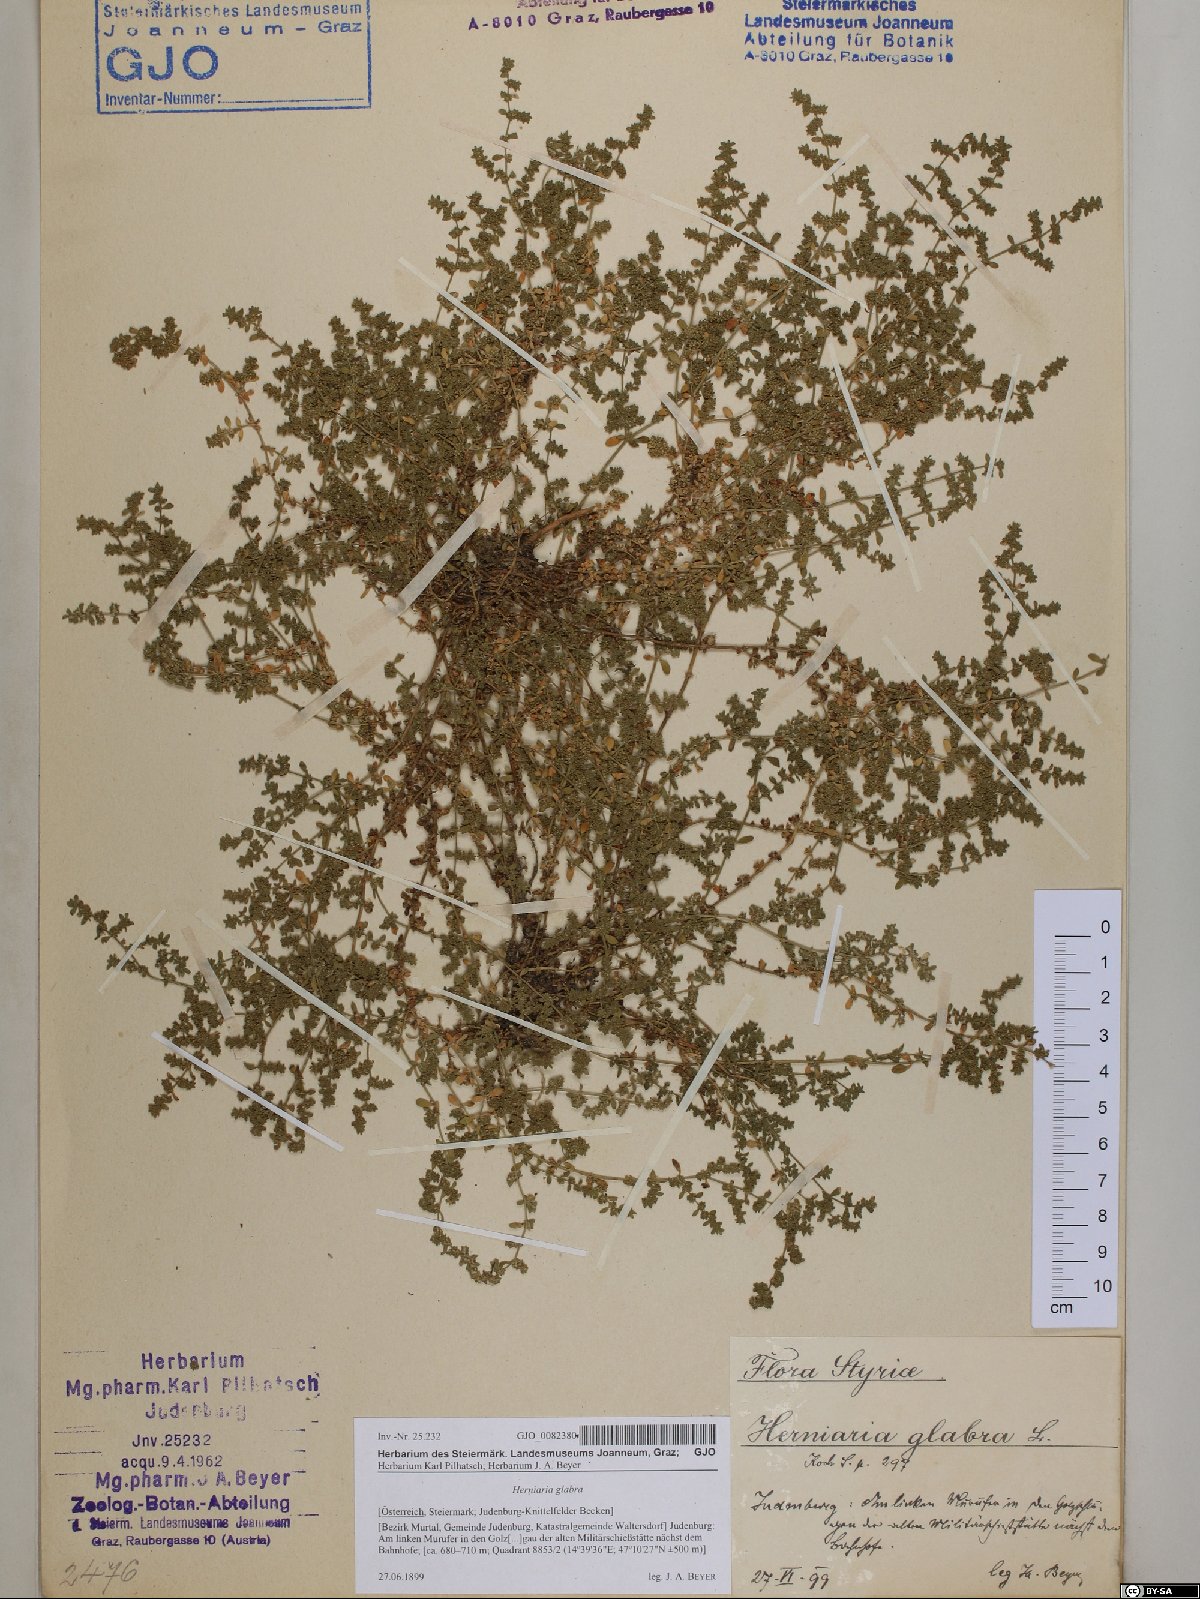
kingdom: Plantae
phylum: Tracheophyta
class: Magnoliopsida
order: Caryophyllales
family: Caryophyllaceae
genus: Herniaria
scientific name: Herniaria glabra
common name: Smooth rupturewort
